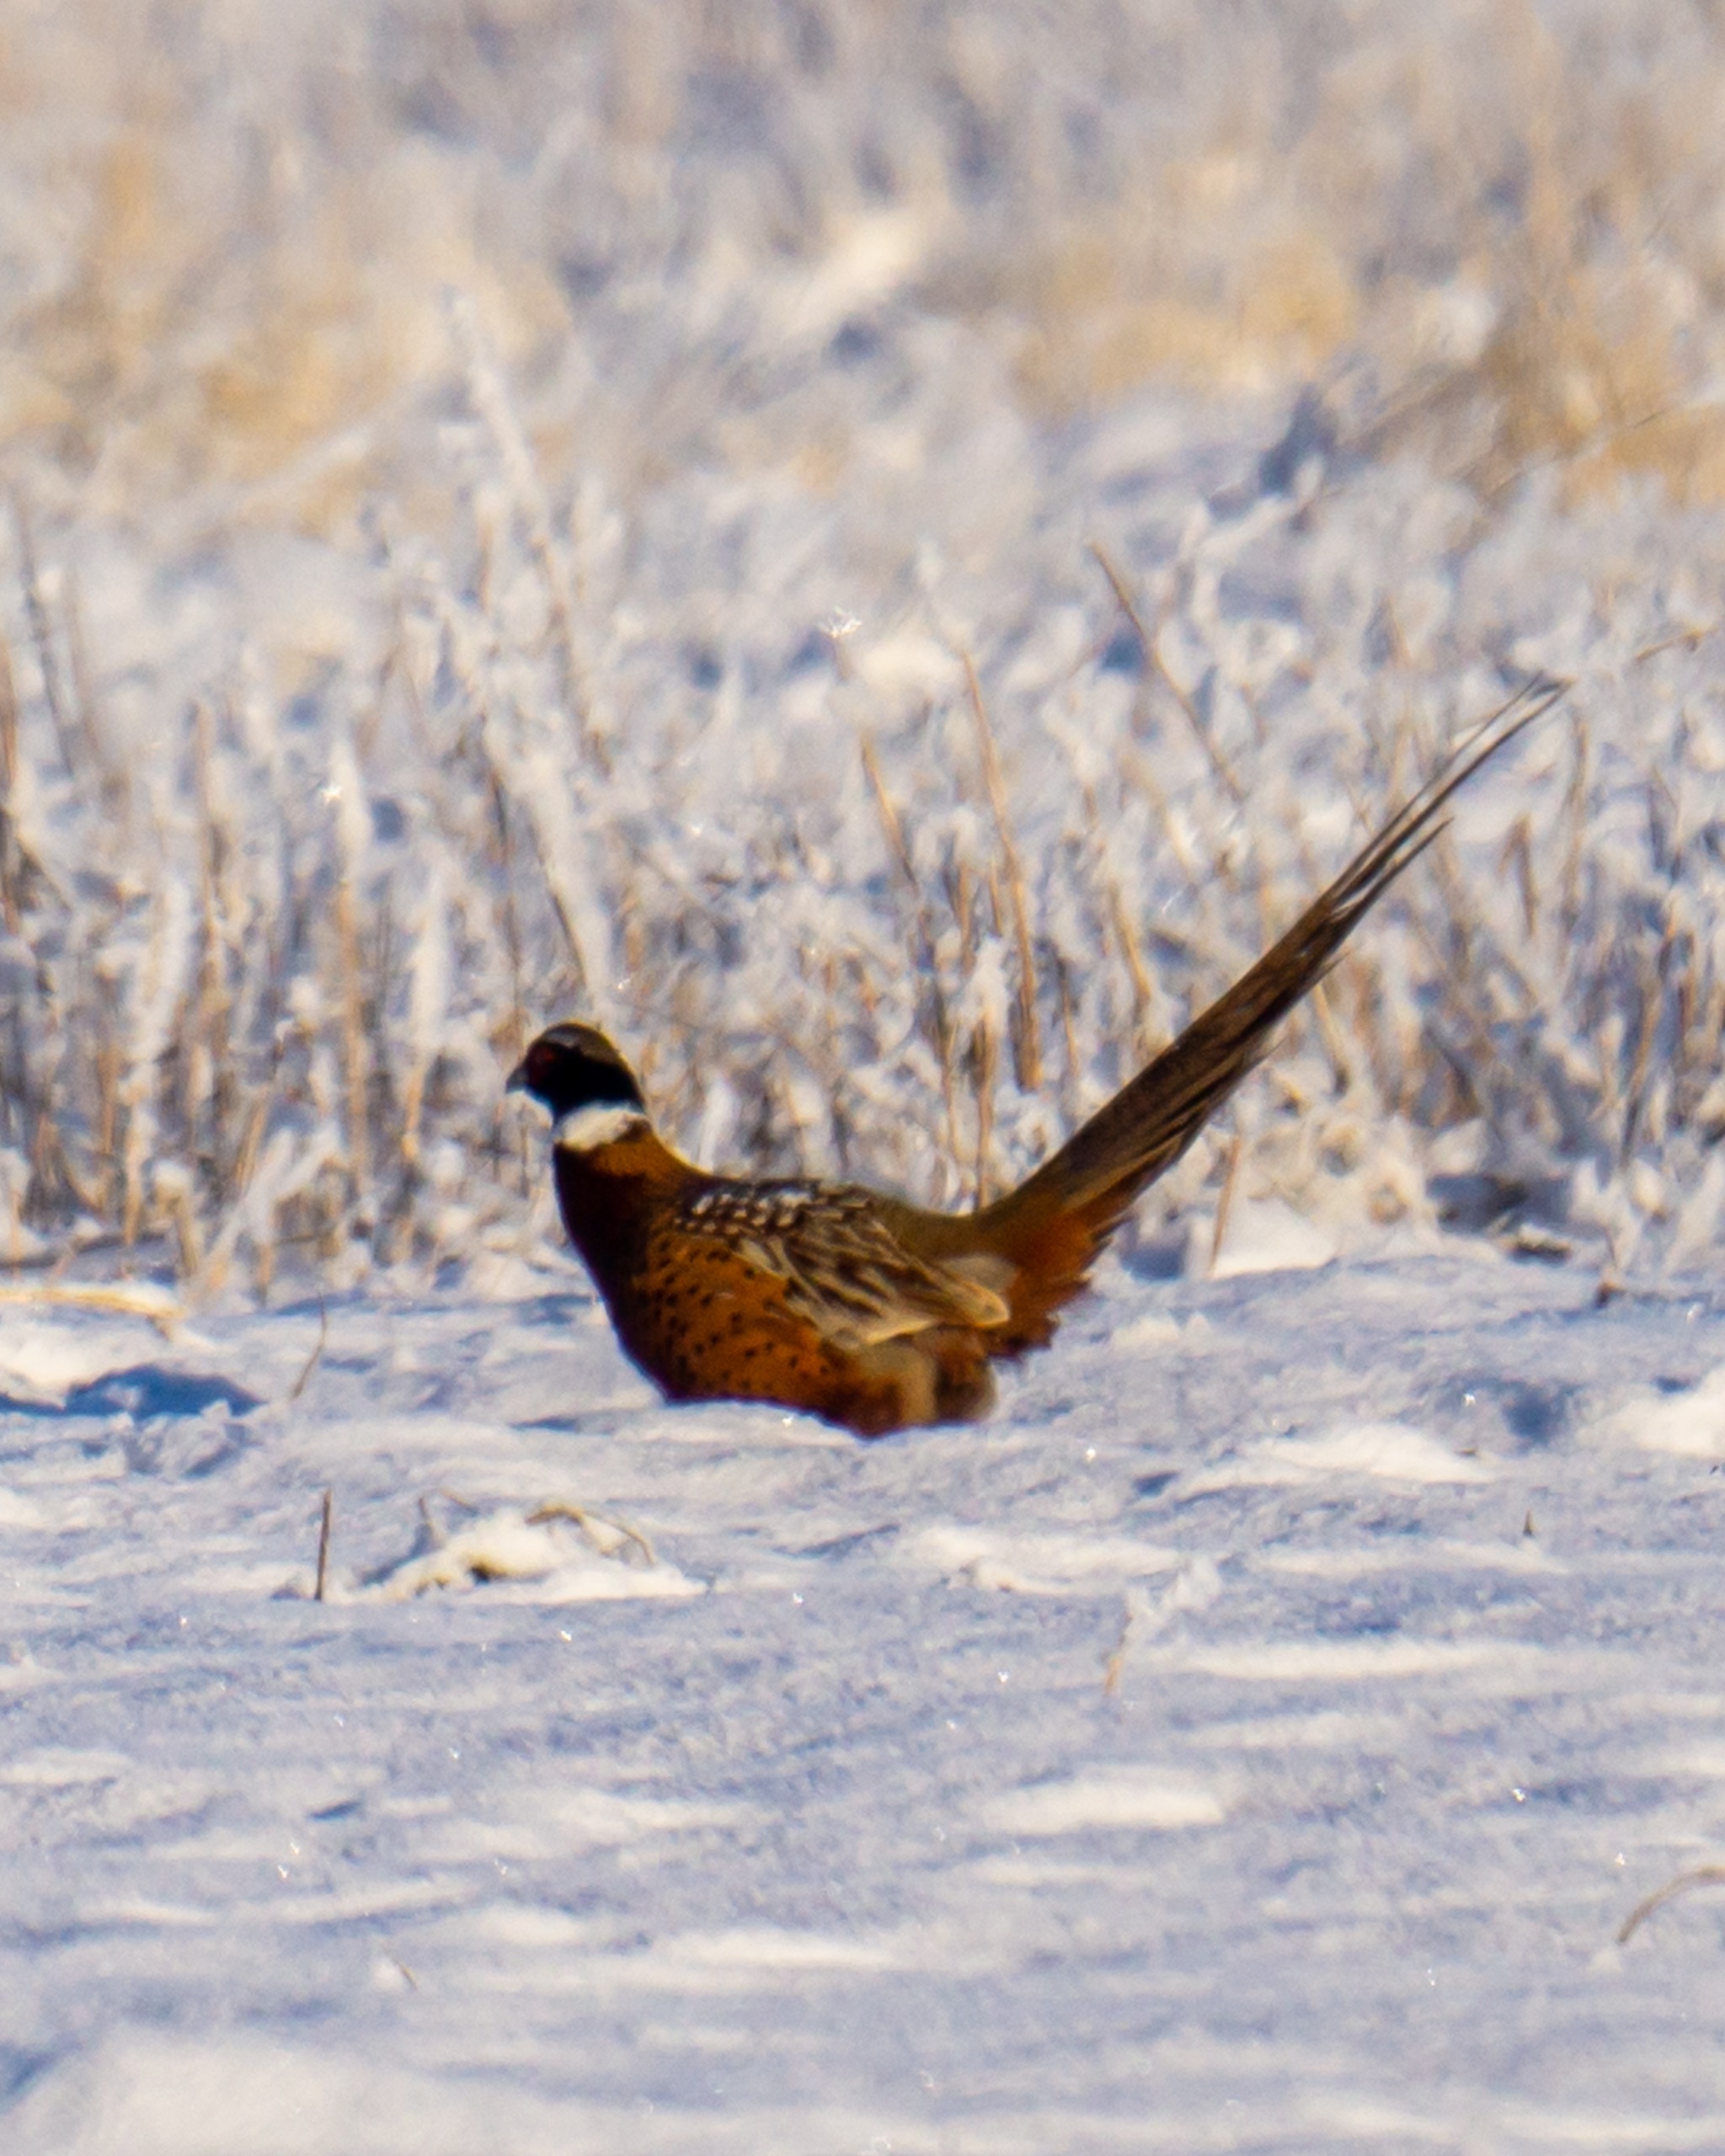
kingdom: Animalia
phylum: Chordata
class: Aves
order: Galliformes
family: Phasianidae
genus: Phasianus
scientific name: Phasianus colchicus
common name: Fasan
